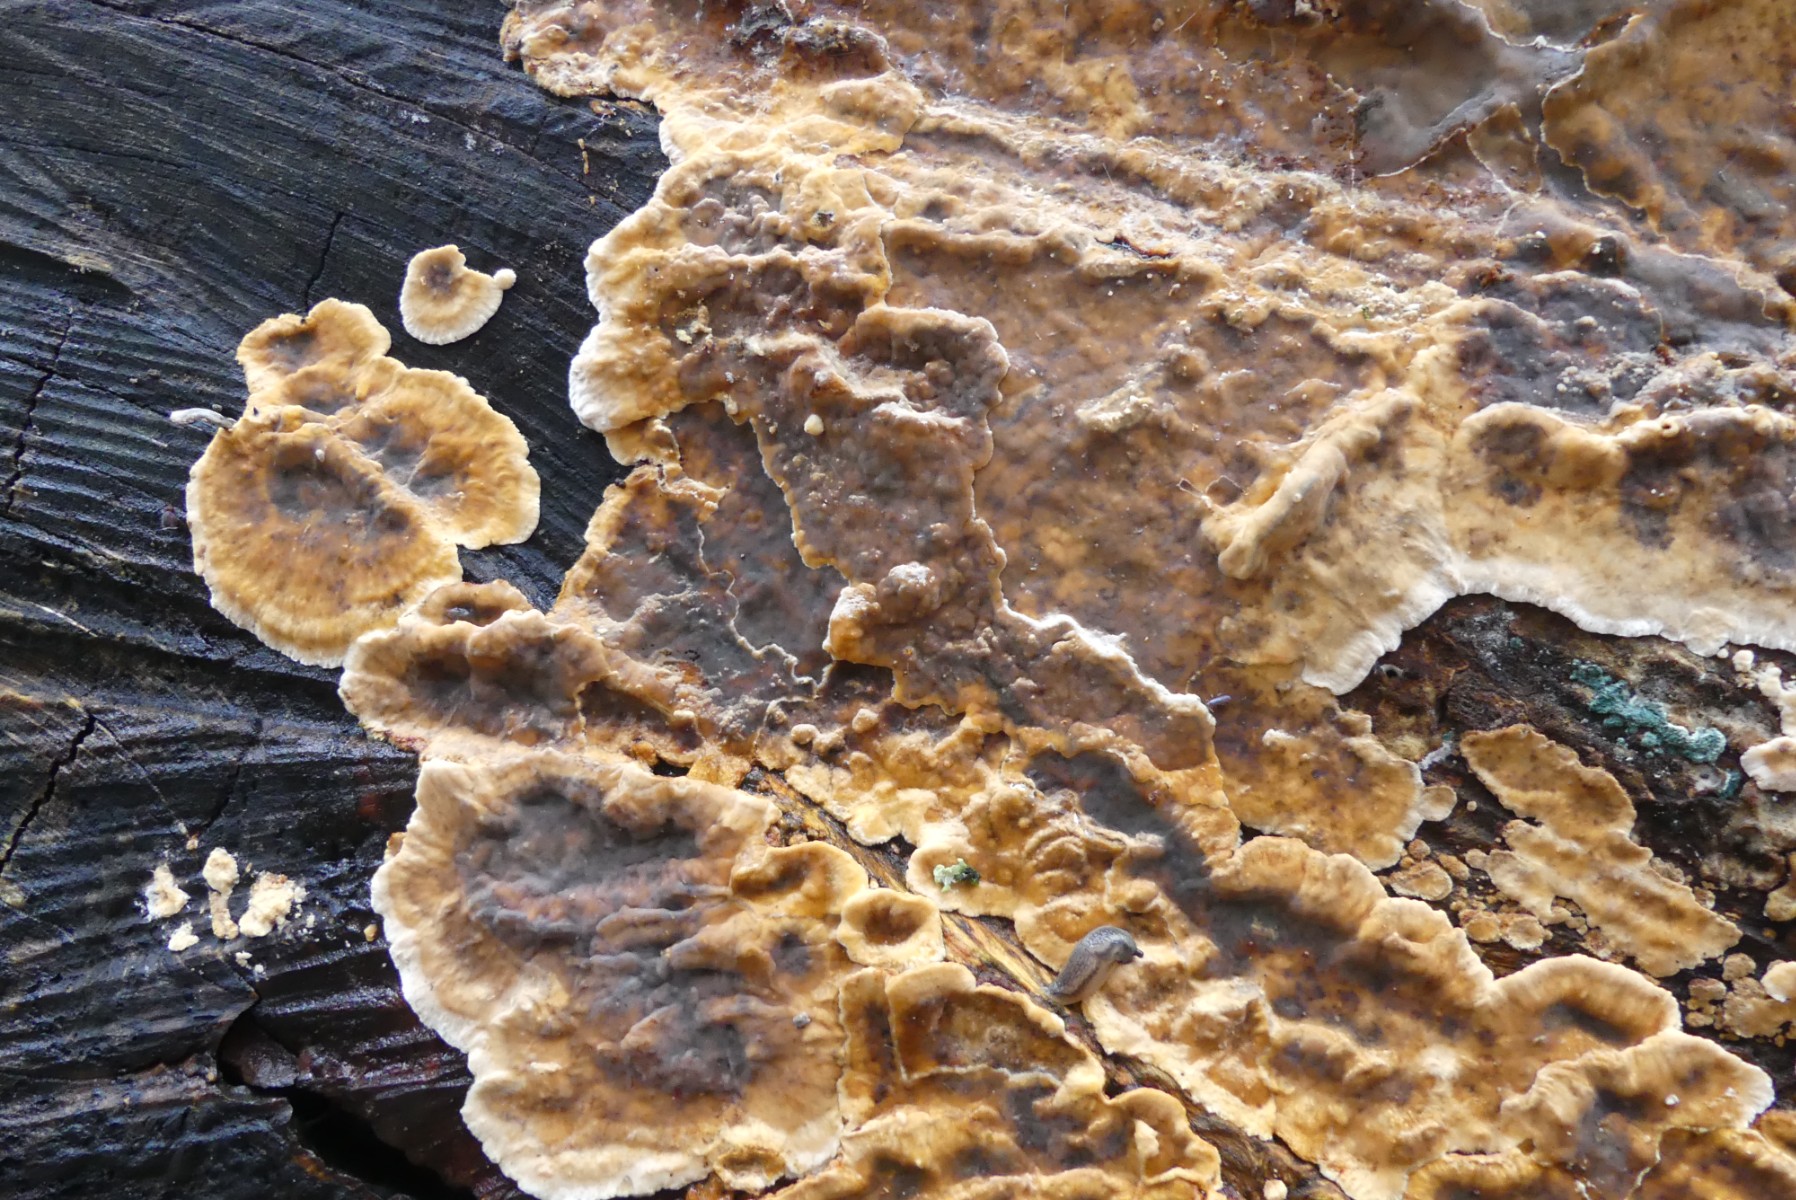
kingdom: Fungi
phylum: Basidiomycota
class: Agaricomycetes
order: Russulales
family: Stereaceae
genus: Stereum
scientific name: Stereum
